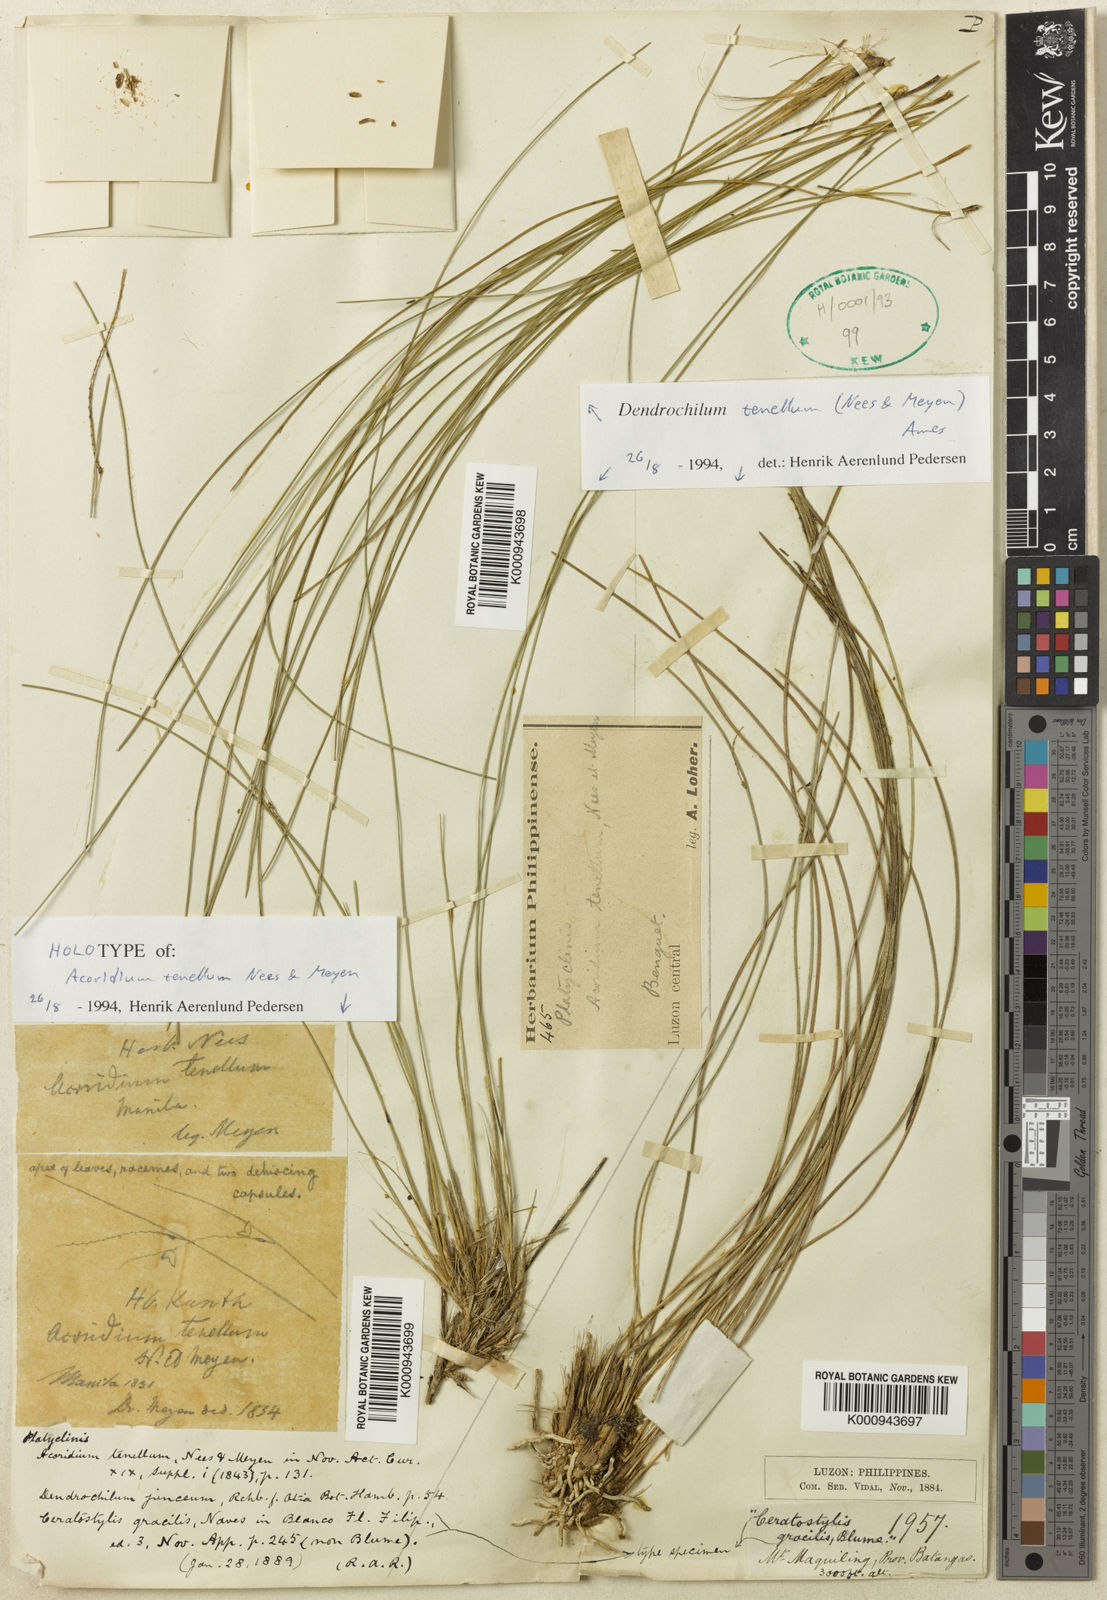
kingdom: Plantae
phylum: Tracheophyta
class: Liliopsida
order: Asparagales
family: Orchidaceae
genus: Coelogyne
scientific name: Coelogyne lagarophylla
